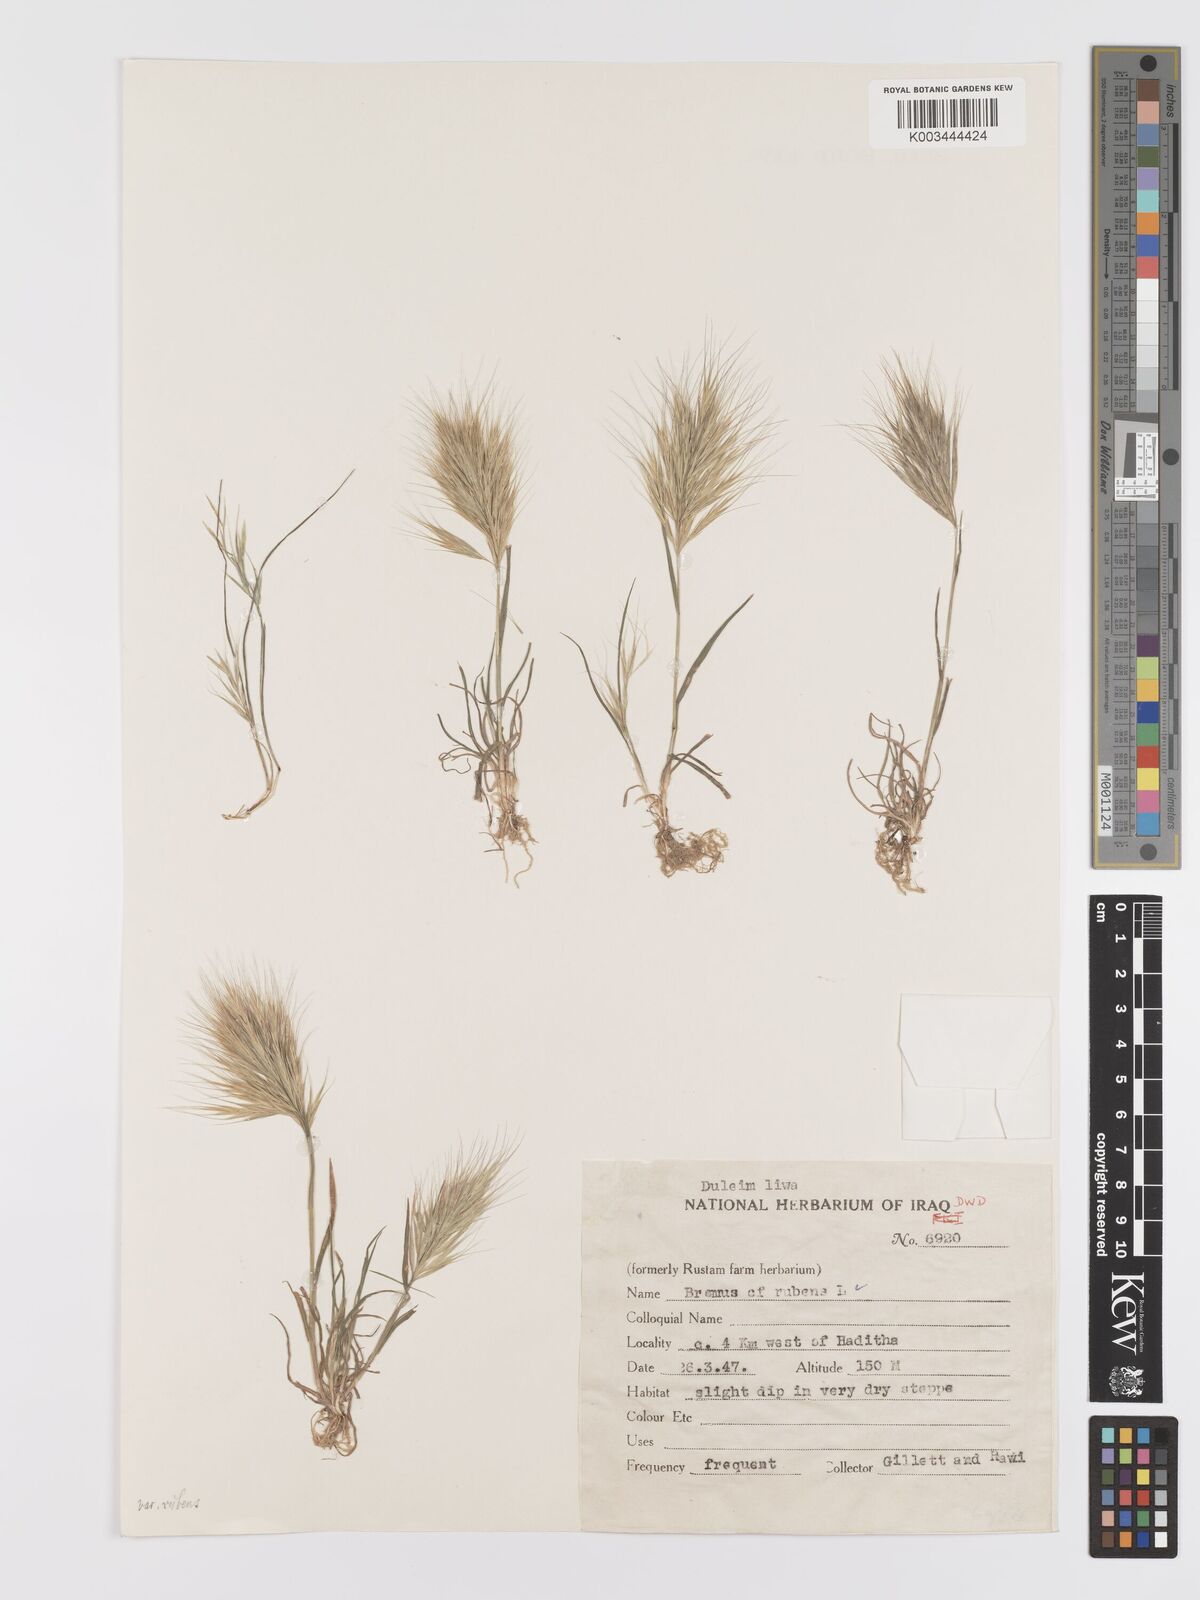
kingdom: Plantae
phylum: Tracheophyta
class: Liliopsida
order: Poales
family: Poaceae
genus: Bromus
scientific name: Bromus rubens
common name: Red brome
